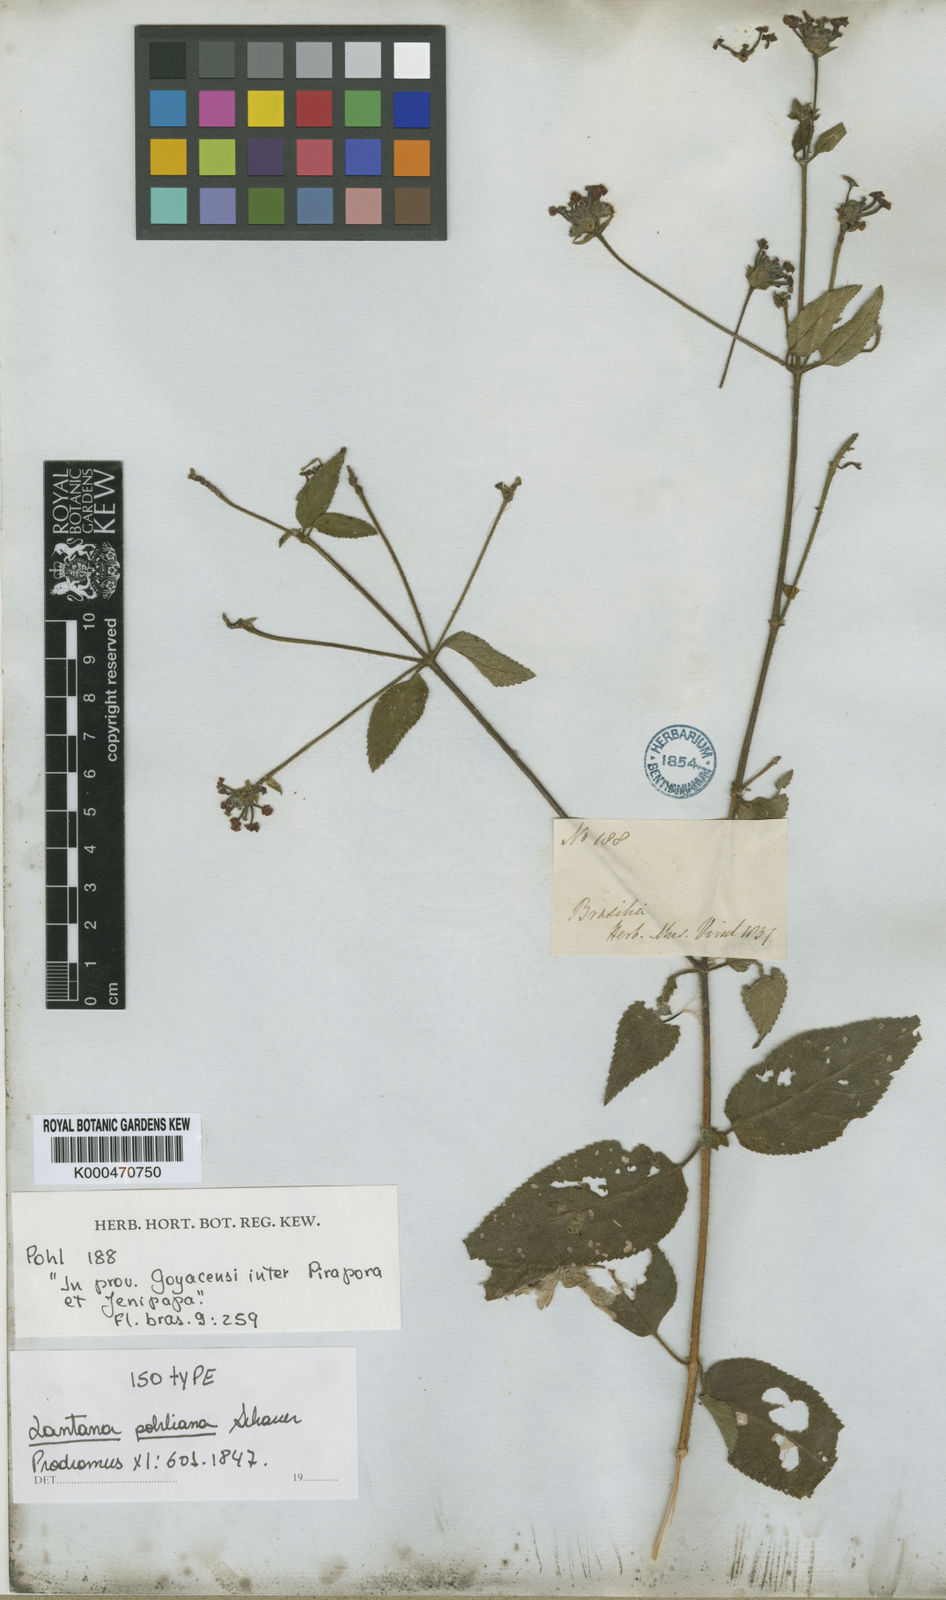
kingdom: Plantae
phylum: Tracheophyta
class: Magnoliopsida
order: Lamiales
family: Verbenaceae
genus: Lantana
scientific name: Lantana pohliana
